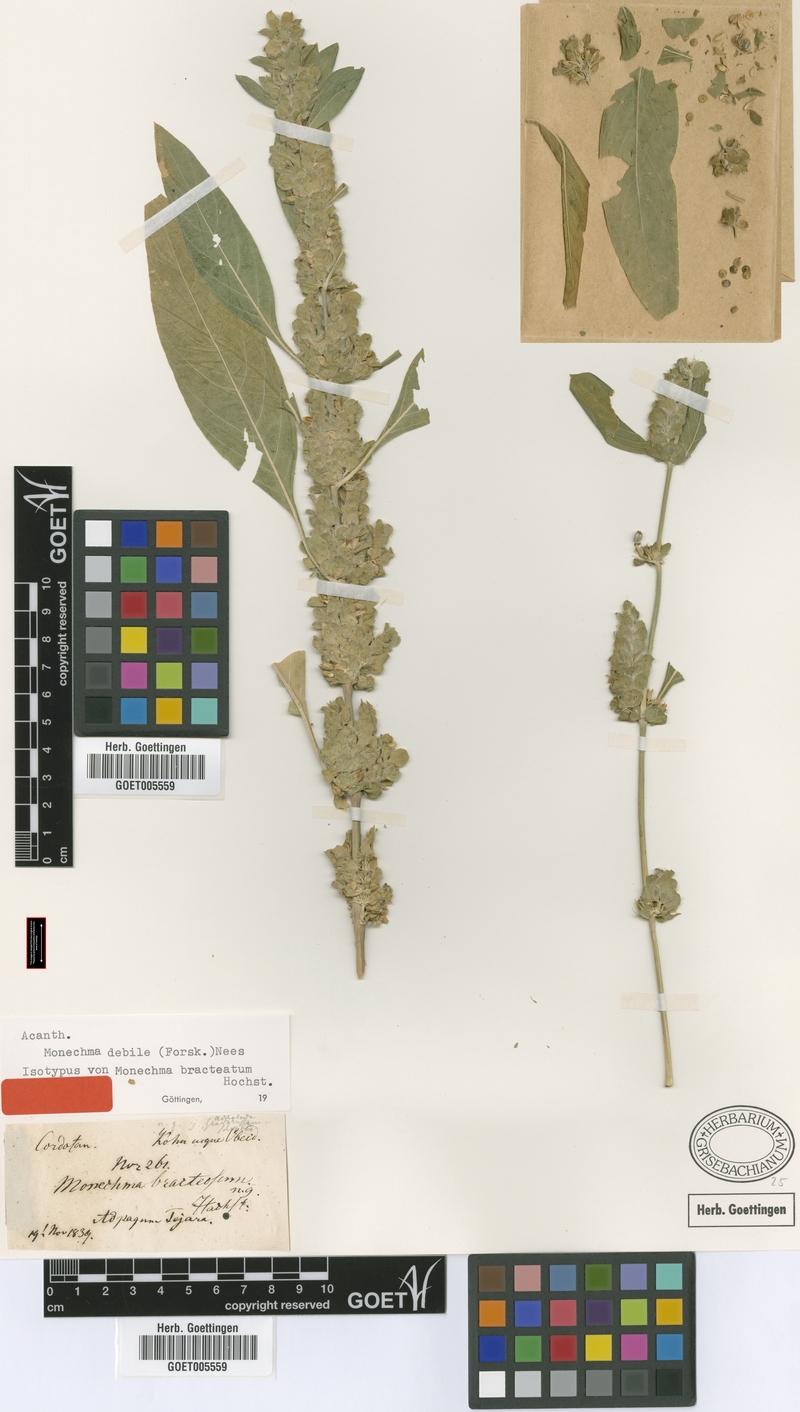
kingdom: Plantae
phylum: Tracheophyta
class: Magnoliopsida
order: Lamiales
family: Acanthaceae
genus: Monechma
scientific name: Monechma debile
